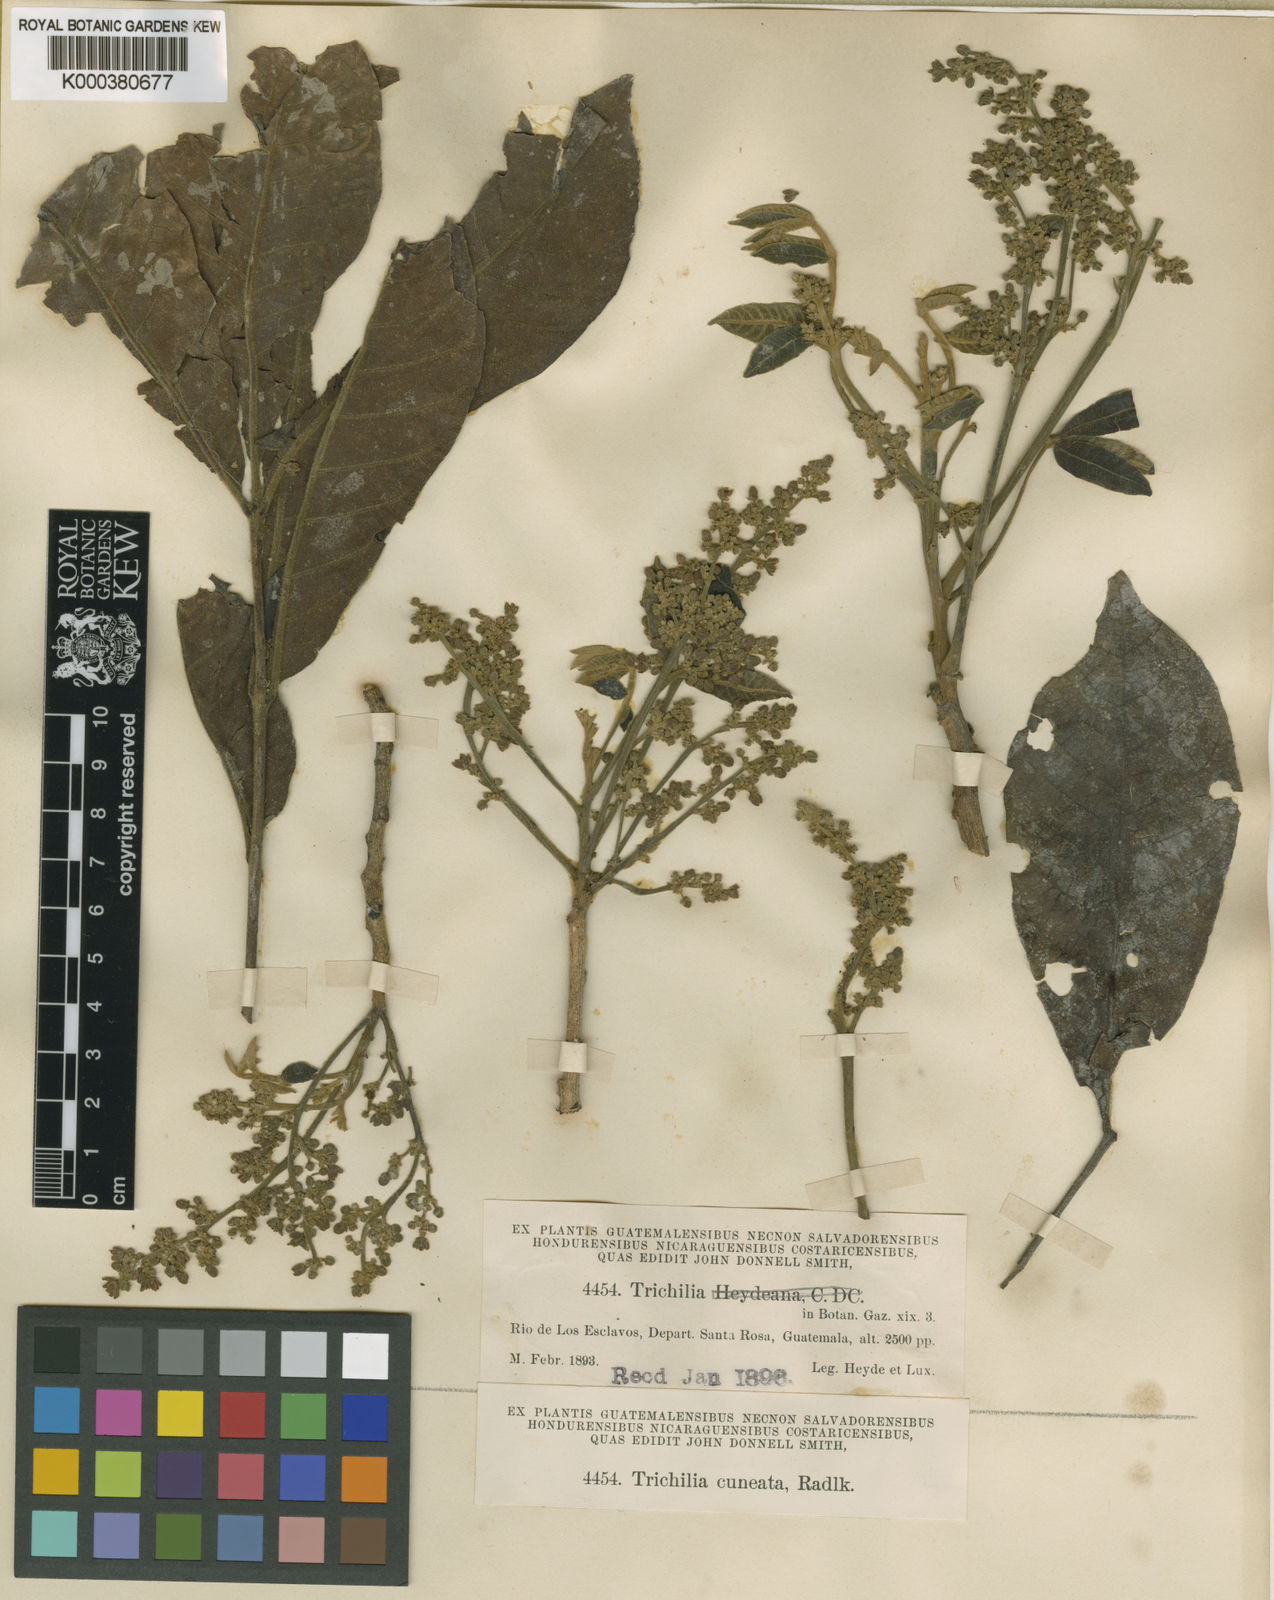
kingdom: Plantae
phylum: Tracheophyta
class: Magnoliopsida
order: Sapindales
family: Meliaceae
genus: Trichilia
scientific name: Trichilia martiana
